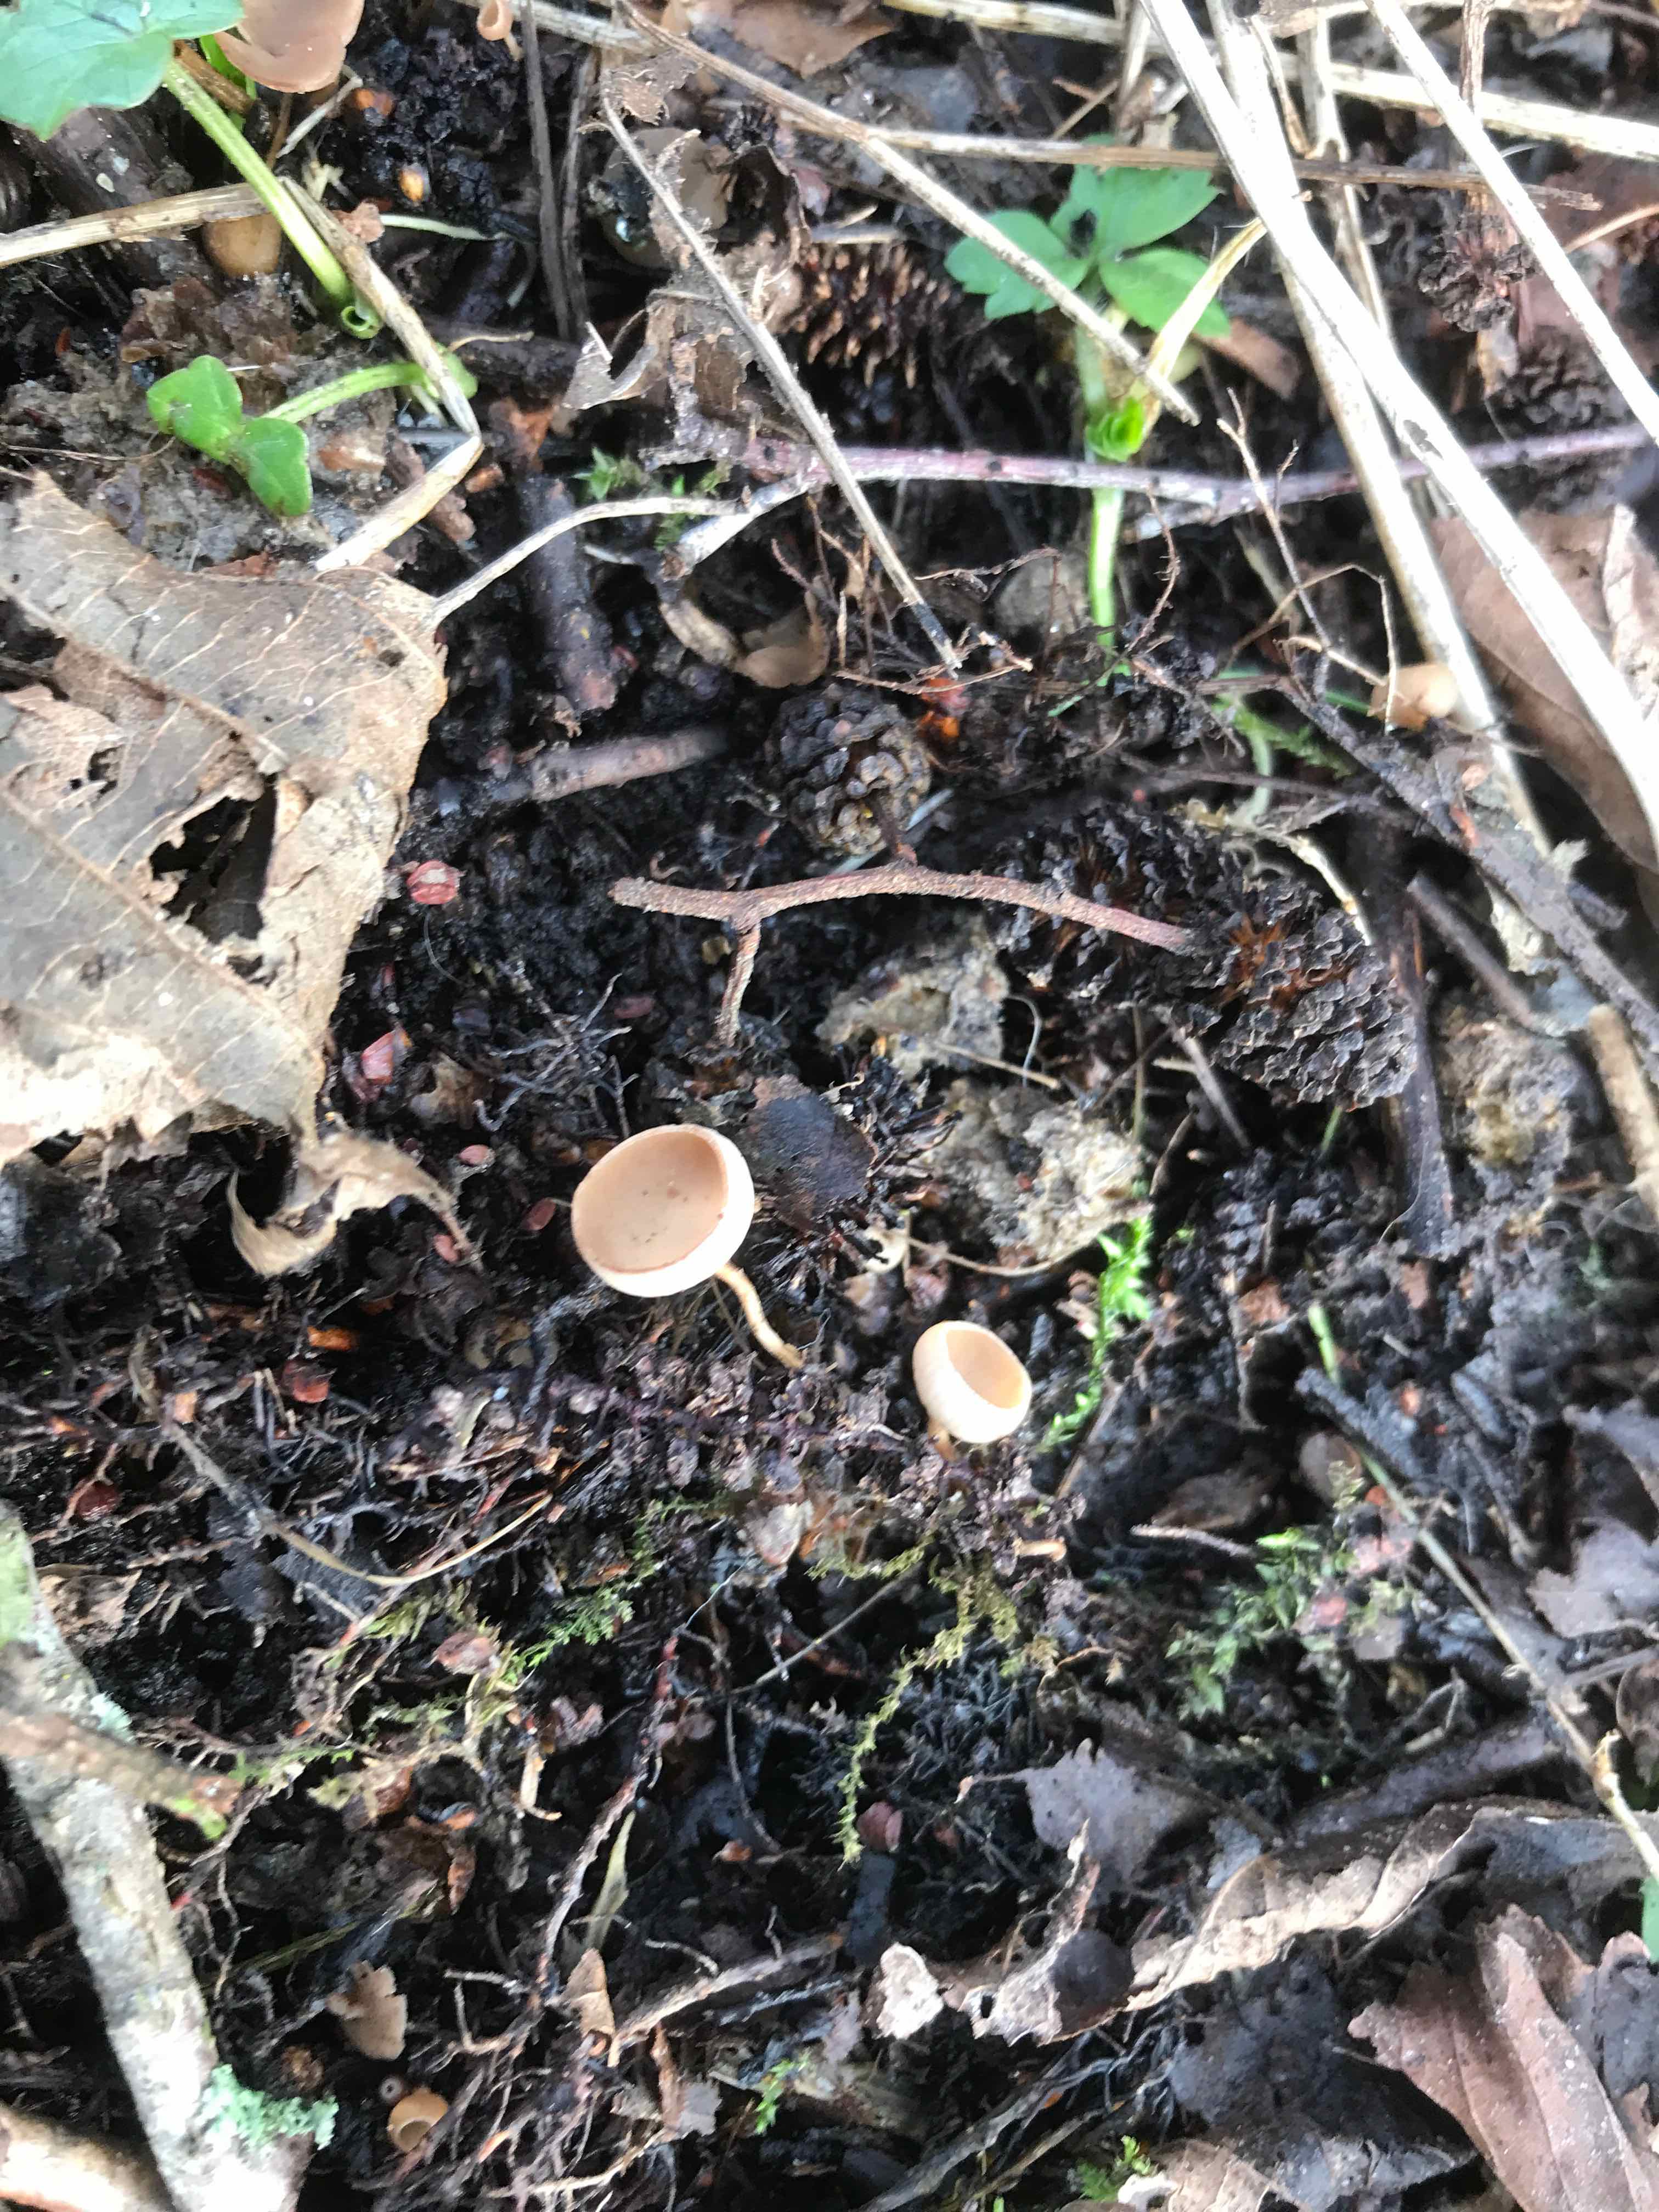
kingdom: Fungi
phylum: Ascomycota
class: Leotiomycetes
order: Helotiales
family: Sclerotiniaceae
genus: Ciboria
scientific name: Ciboria amentacea
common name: ellerakle-knoldskive
